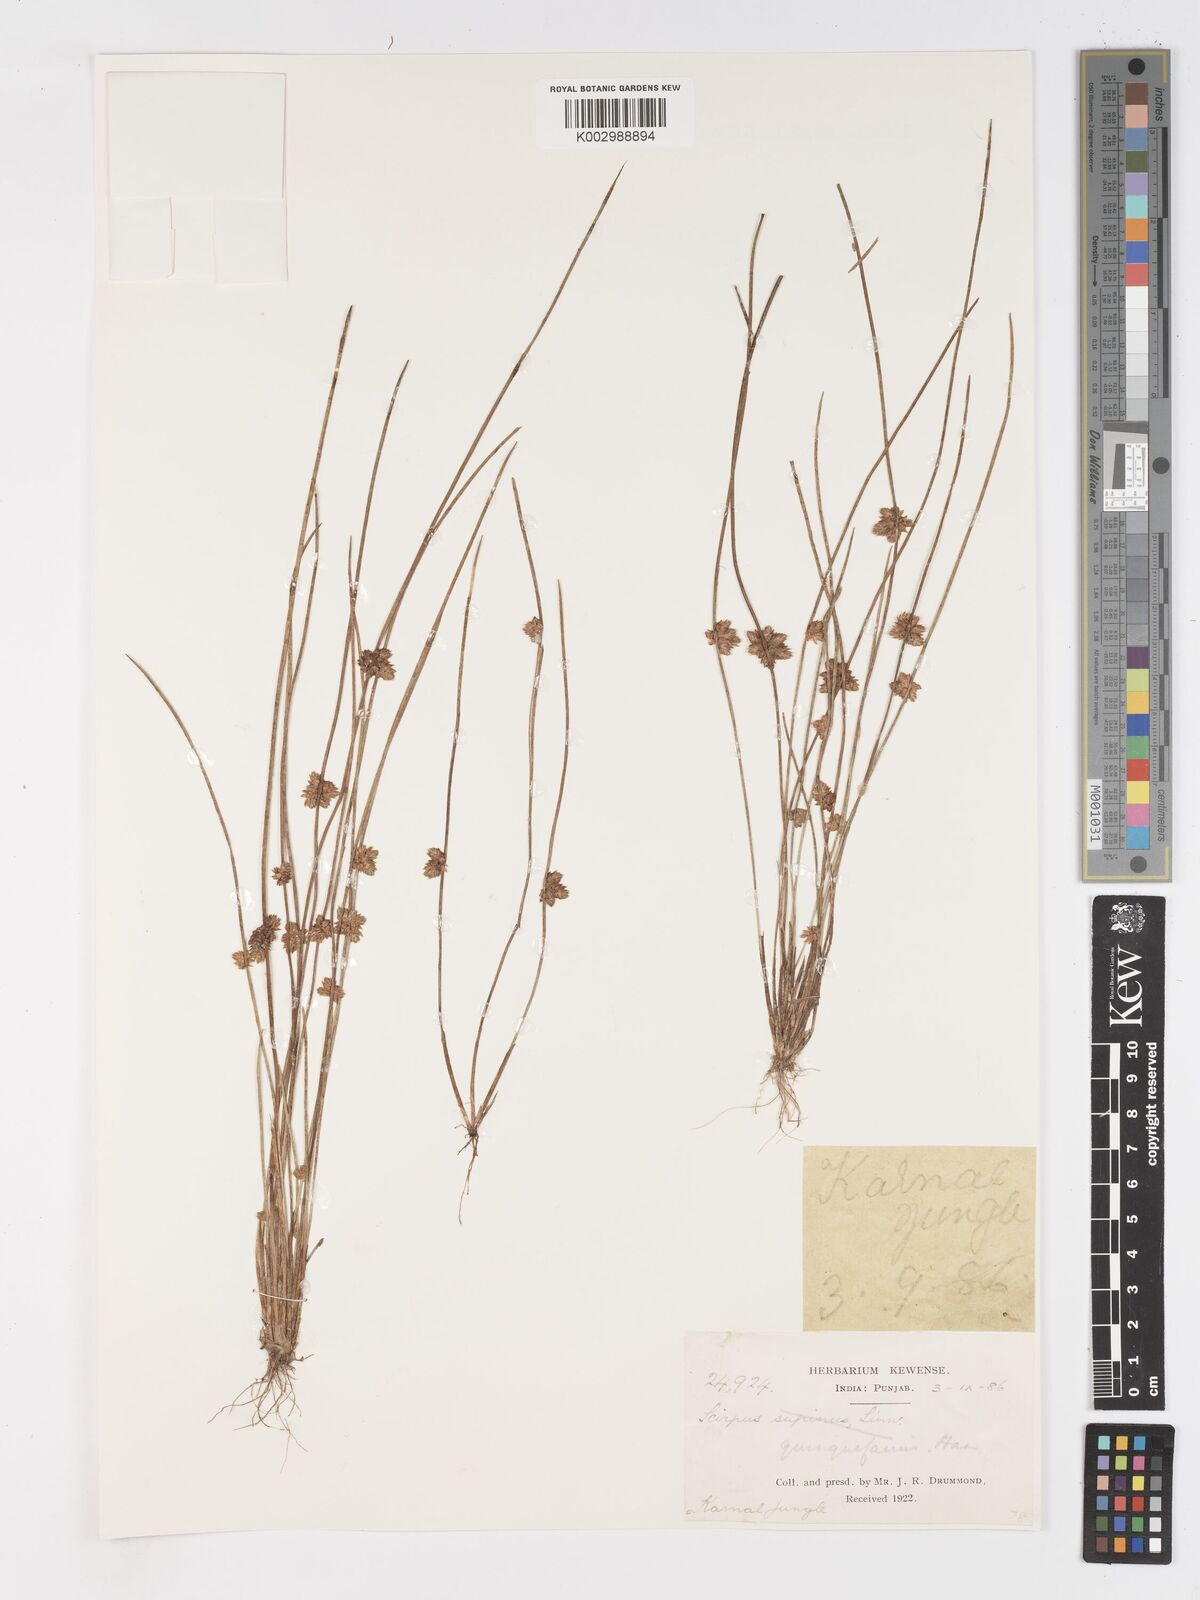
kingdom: Plantae
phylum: Tracheophyta
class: Liliopsida
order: Poales
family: Cyperaceae
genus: Schoenoplectiella
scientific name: Schoenoplectiella roylei
